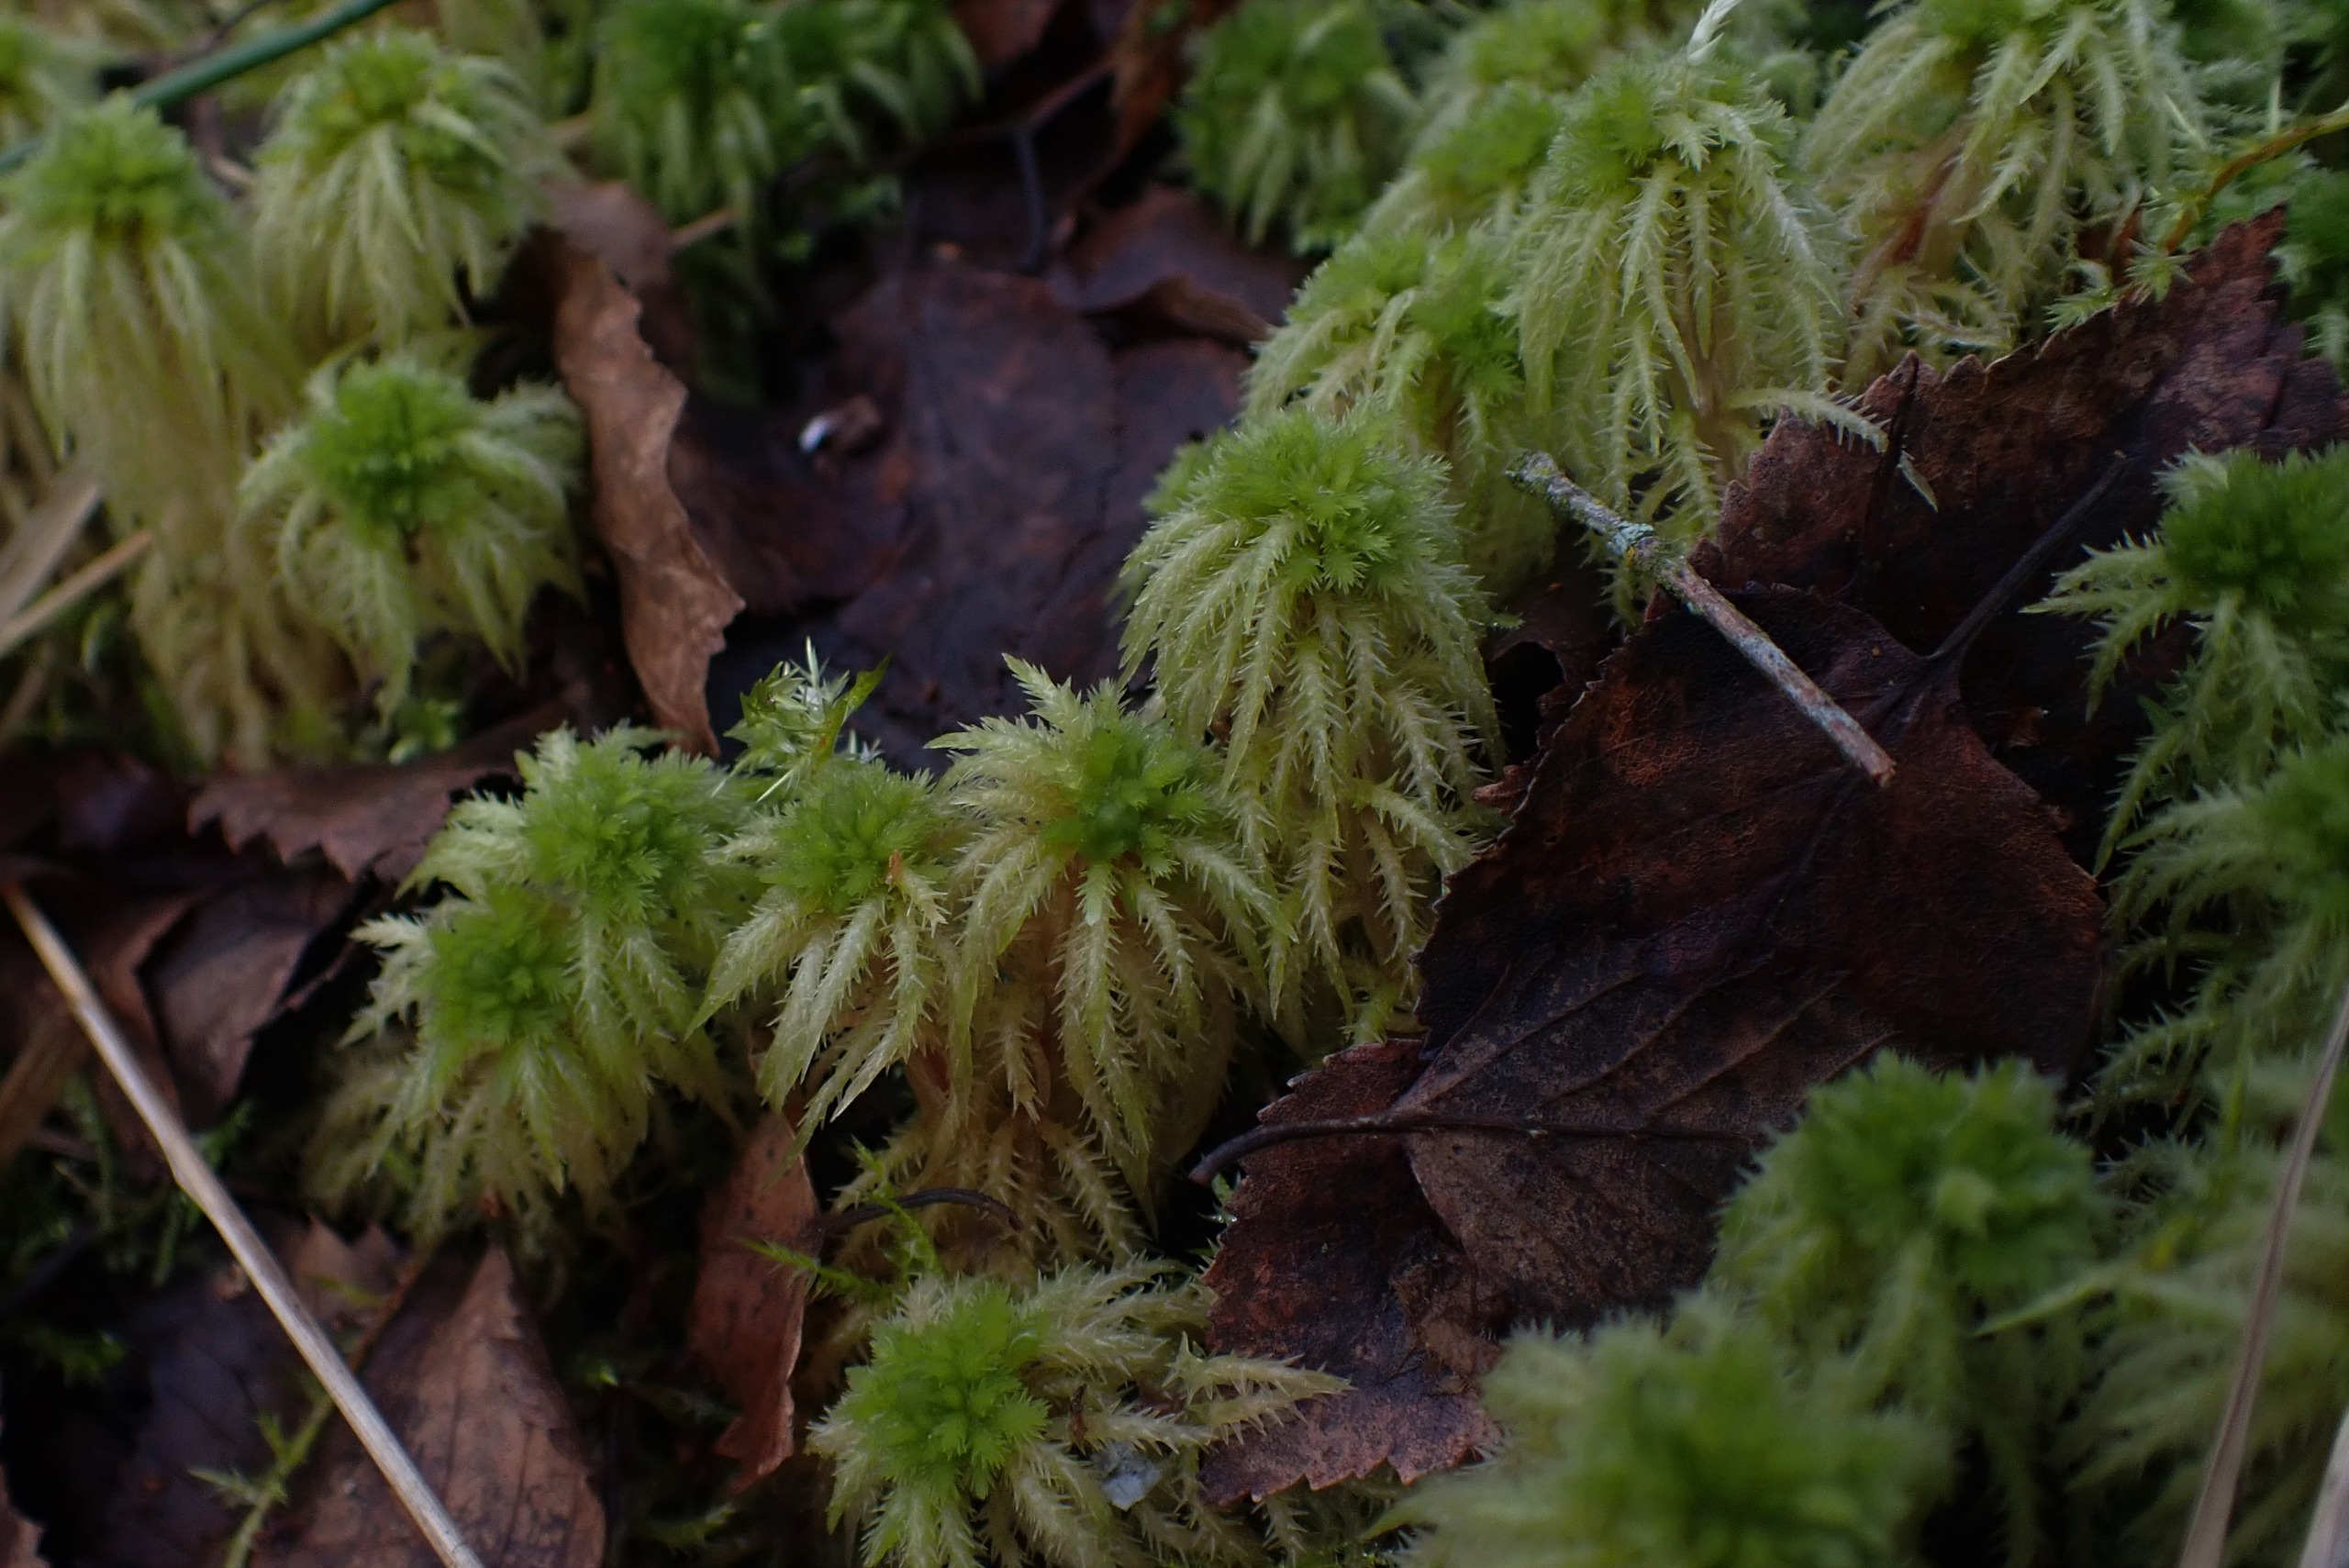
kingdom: Plantae
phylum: Bryophyta
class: Sphagnopsida
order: Sphagnales
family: Sphagnaceae
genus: Sphagnum
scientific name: Sphagnum squarrosum
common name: Udspærret tørvemos
